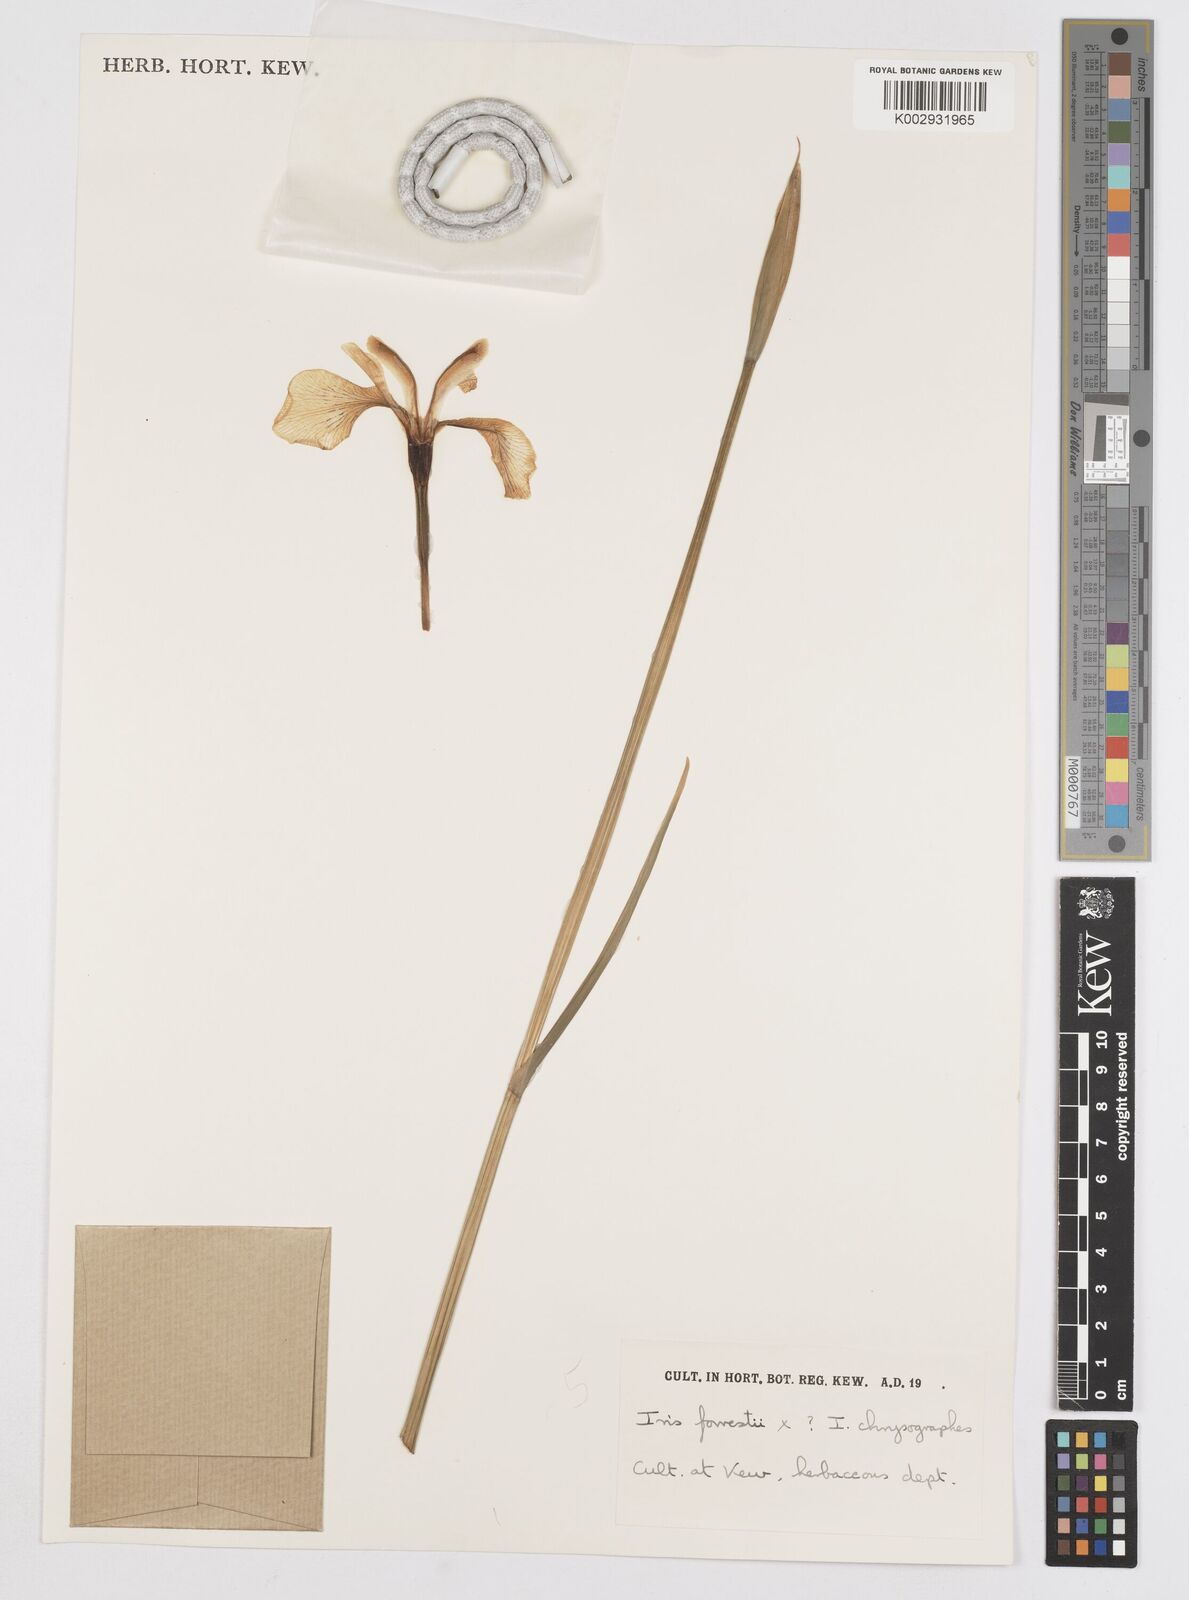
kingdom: Plantae
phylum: Tracheophyta
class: Liliopsida
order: Asparagales
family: Iridaceae
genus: Iris
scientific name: Iris forrestii
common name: Yunnan iris
